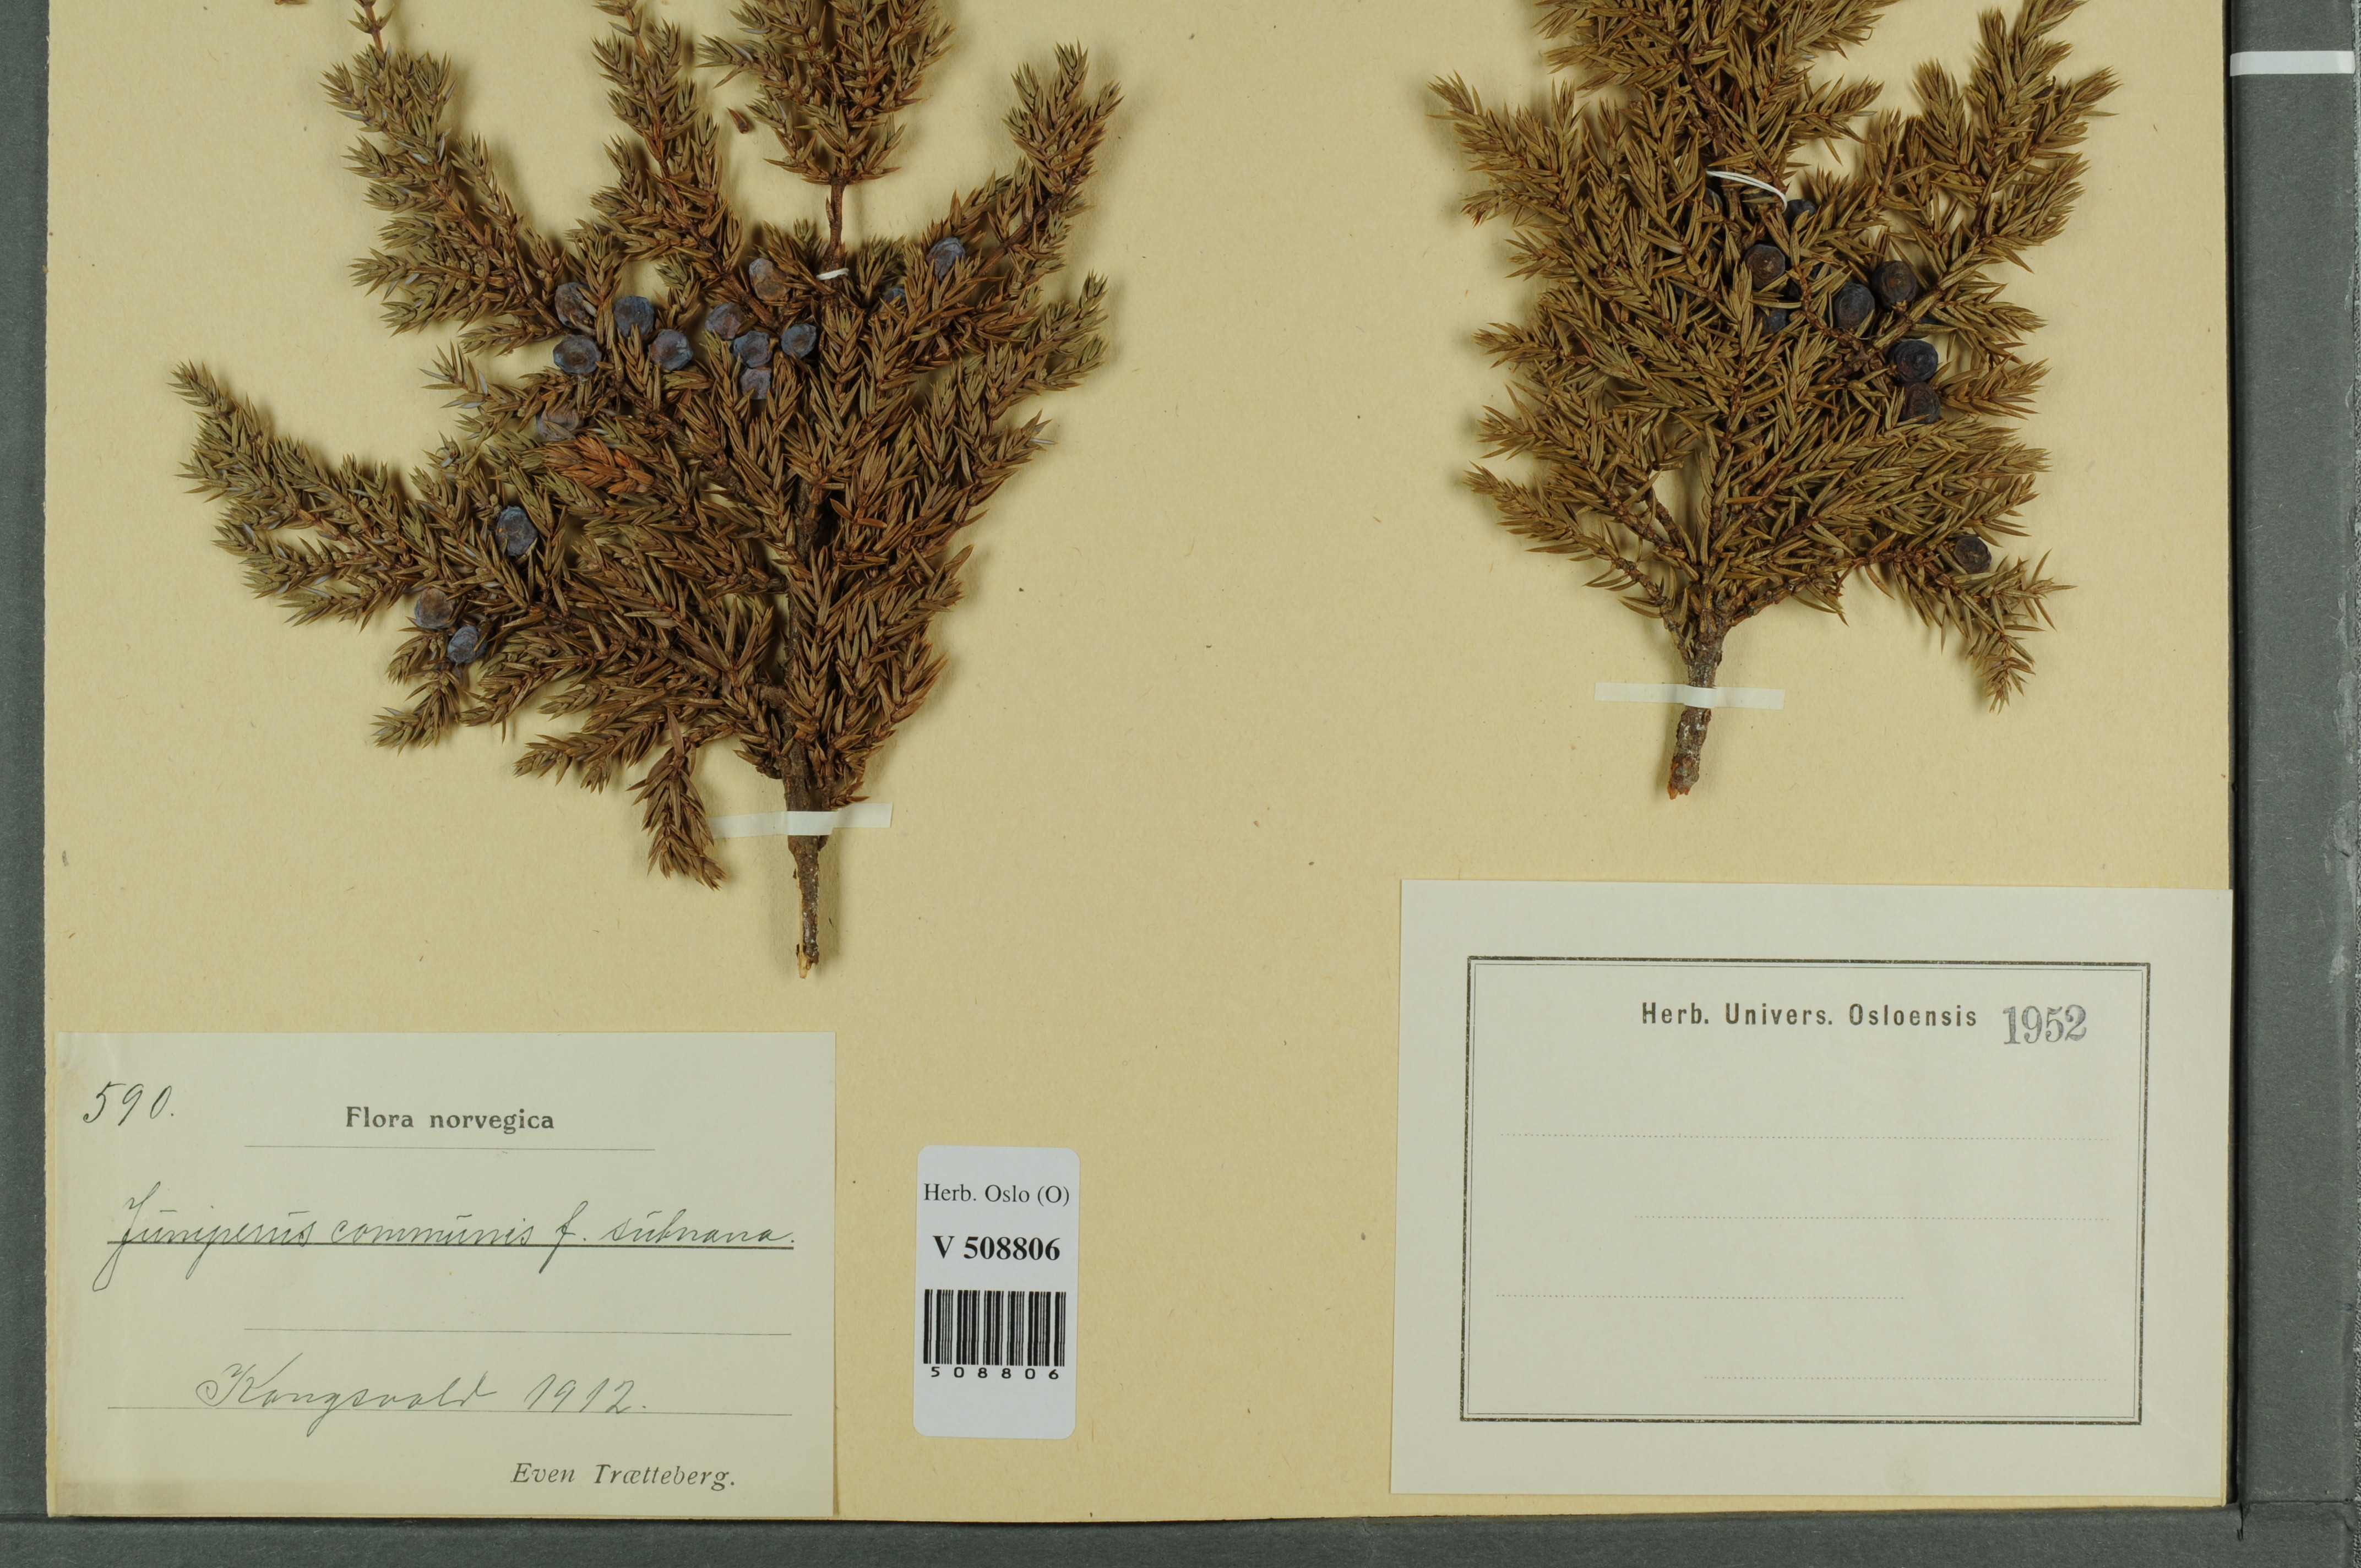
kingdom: Plantae
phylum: Tracheophyta
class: Pinopsida
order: Pinales
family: Cupressaceae
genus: Juniperus
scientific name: Juniperus communis
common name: Common juniper
